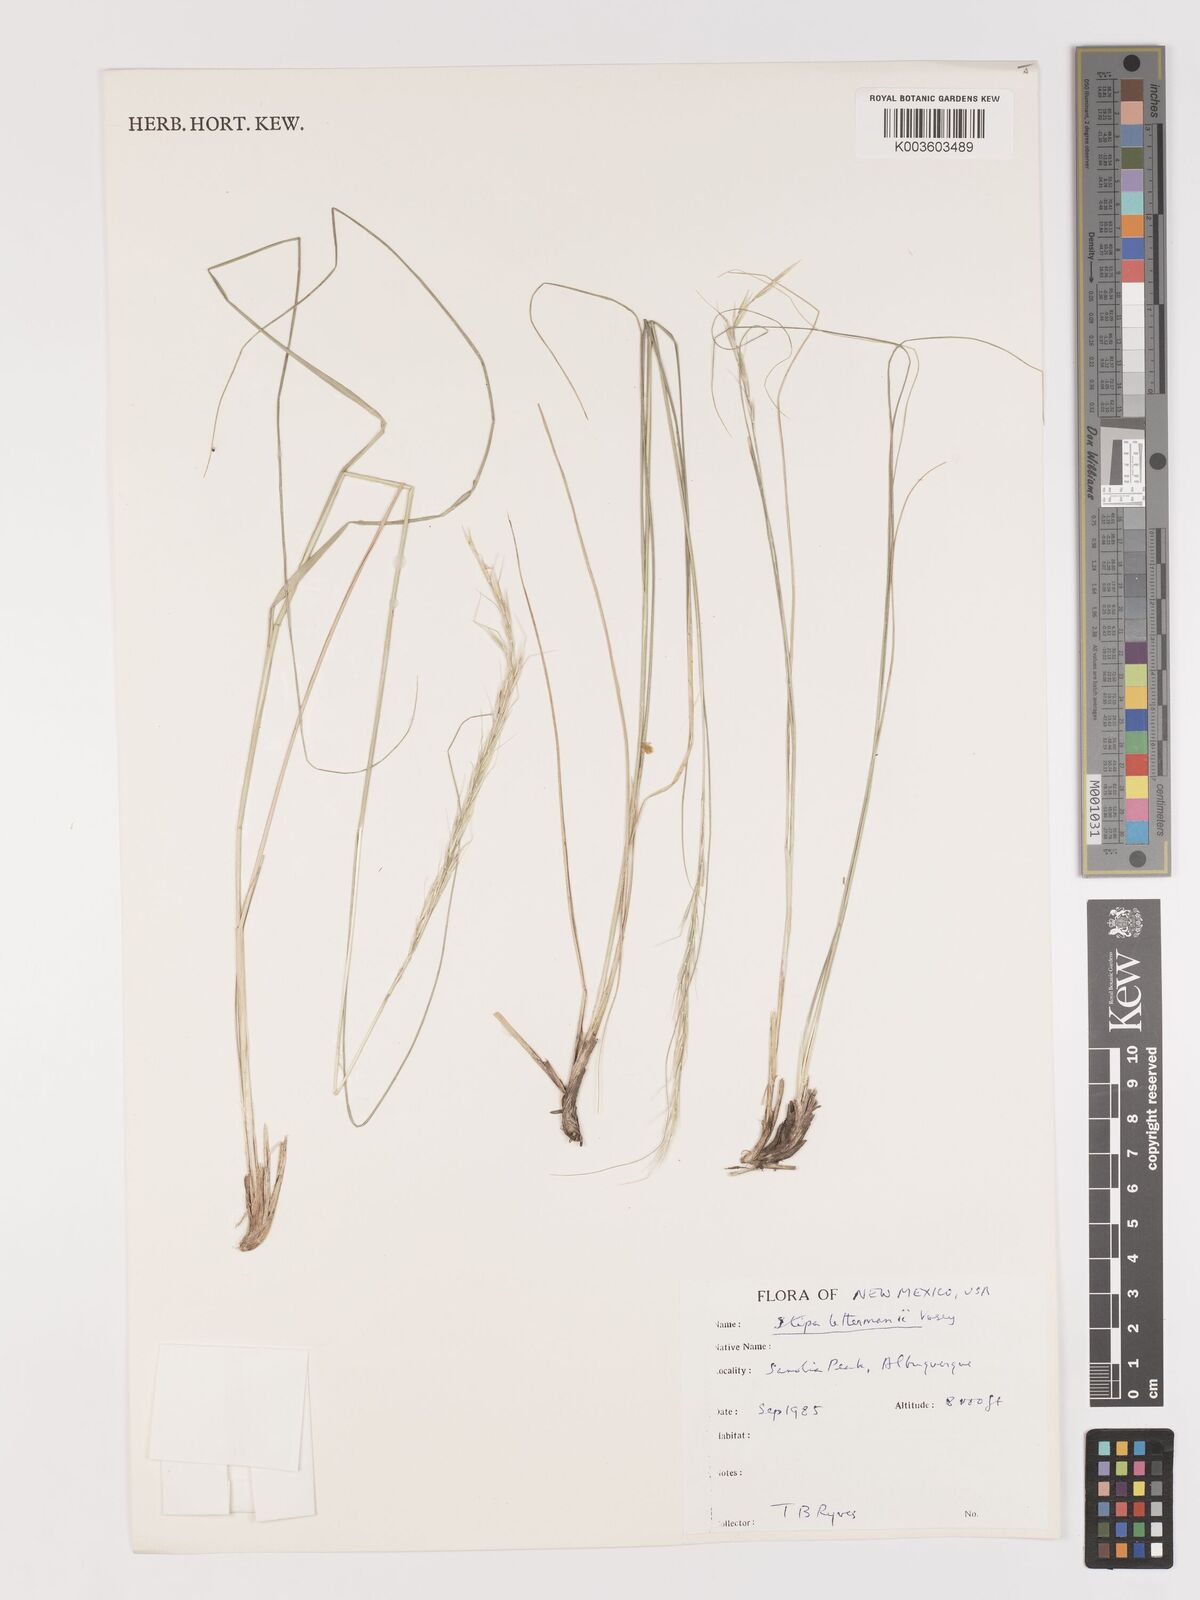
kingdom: Plantae
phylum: Tracheophyta
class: Liliopsida
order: Poales
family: Poaceae
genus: Eriocoma
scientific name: Eriocoma lettermanii
